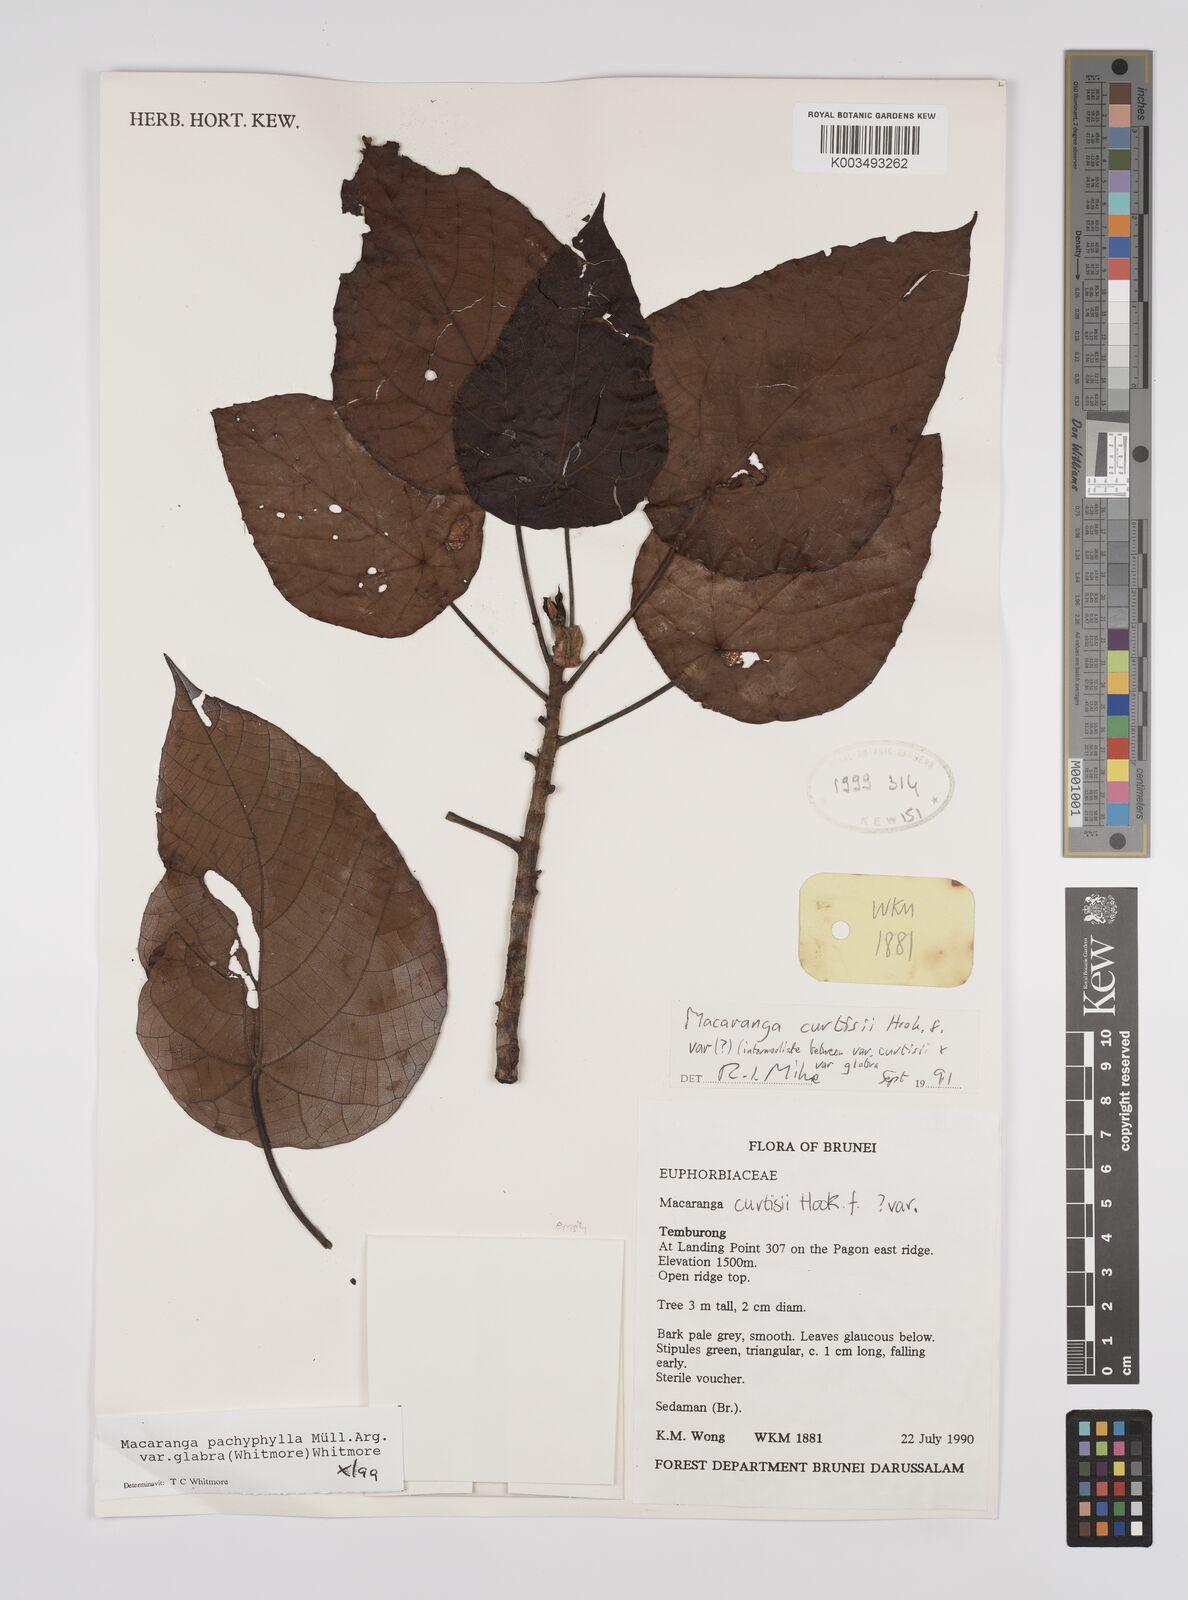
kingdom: Plantae
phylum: Tracheophyta
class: Magnoliopsida
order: Malpighiales
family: Euphorbiaceae
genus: Macaranga
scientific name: Macaranga pachyphylla
